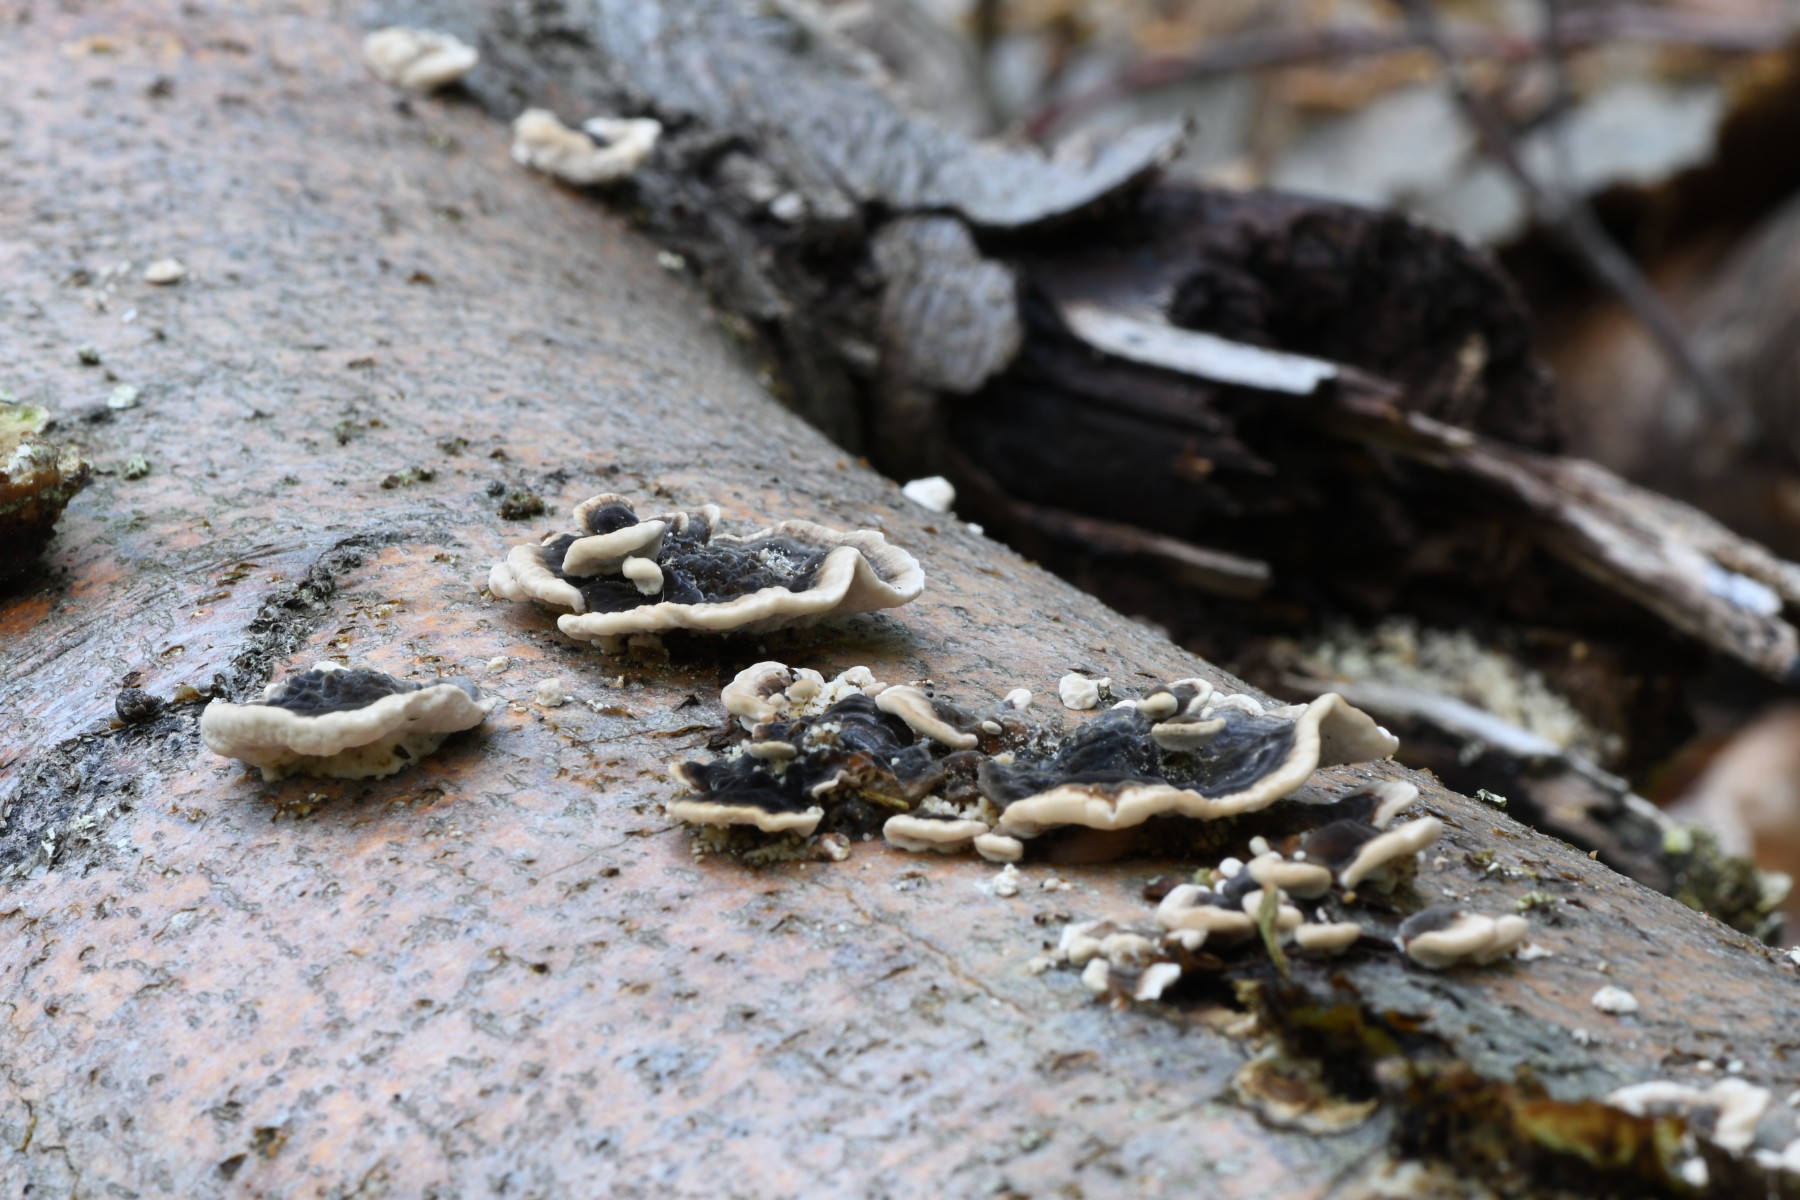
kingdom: Fungi
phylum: Basidiomycota
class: Agaricomycetes
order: Polyporales
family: Polyporaceae
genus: Trametes
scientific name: Trametes versicolor
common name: broget læderporesvamp
